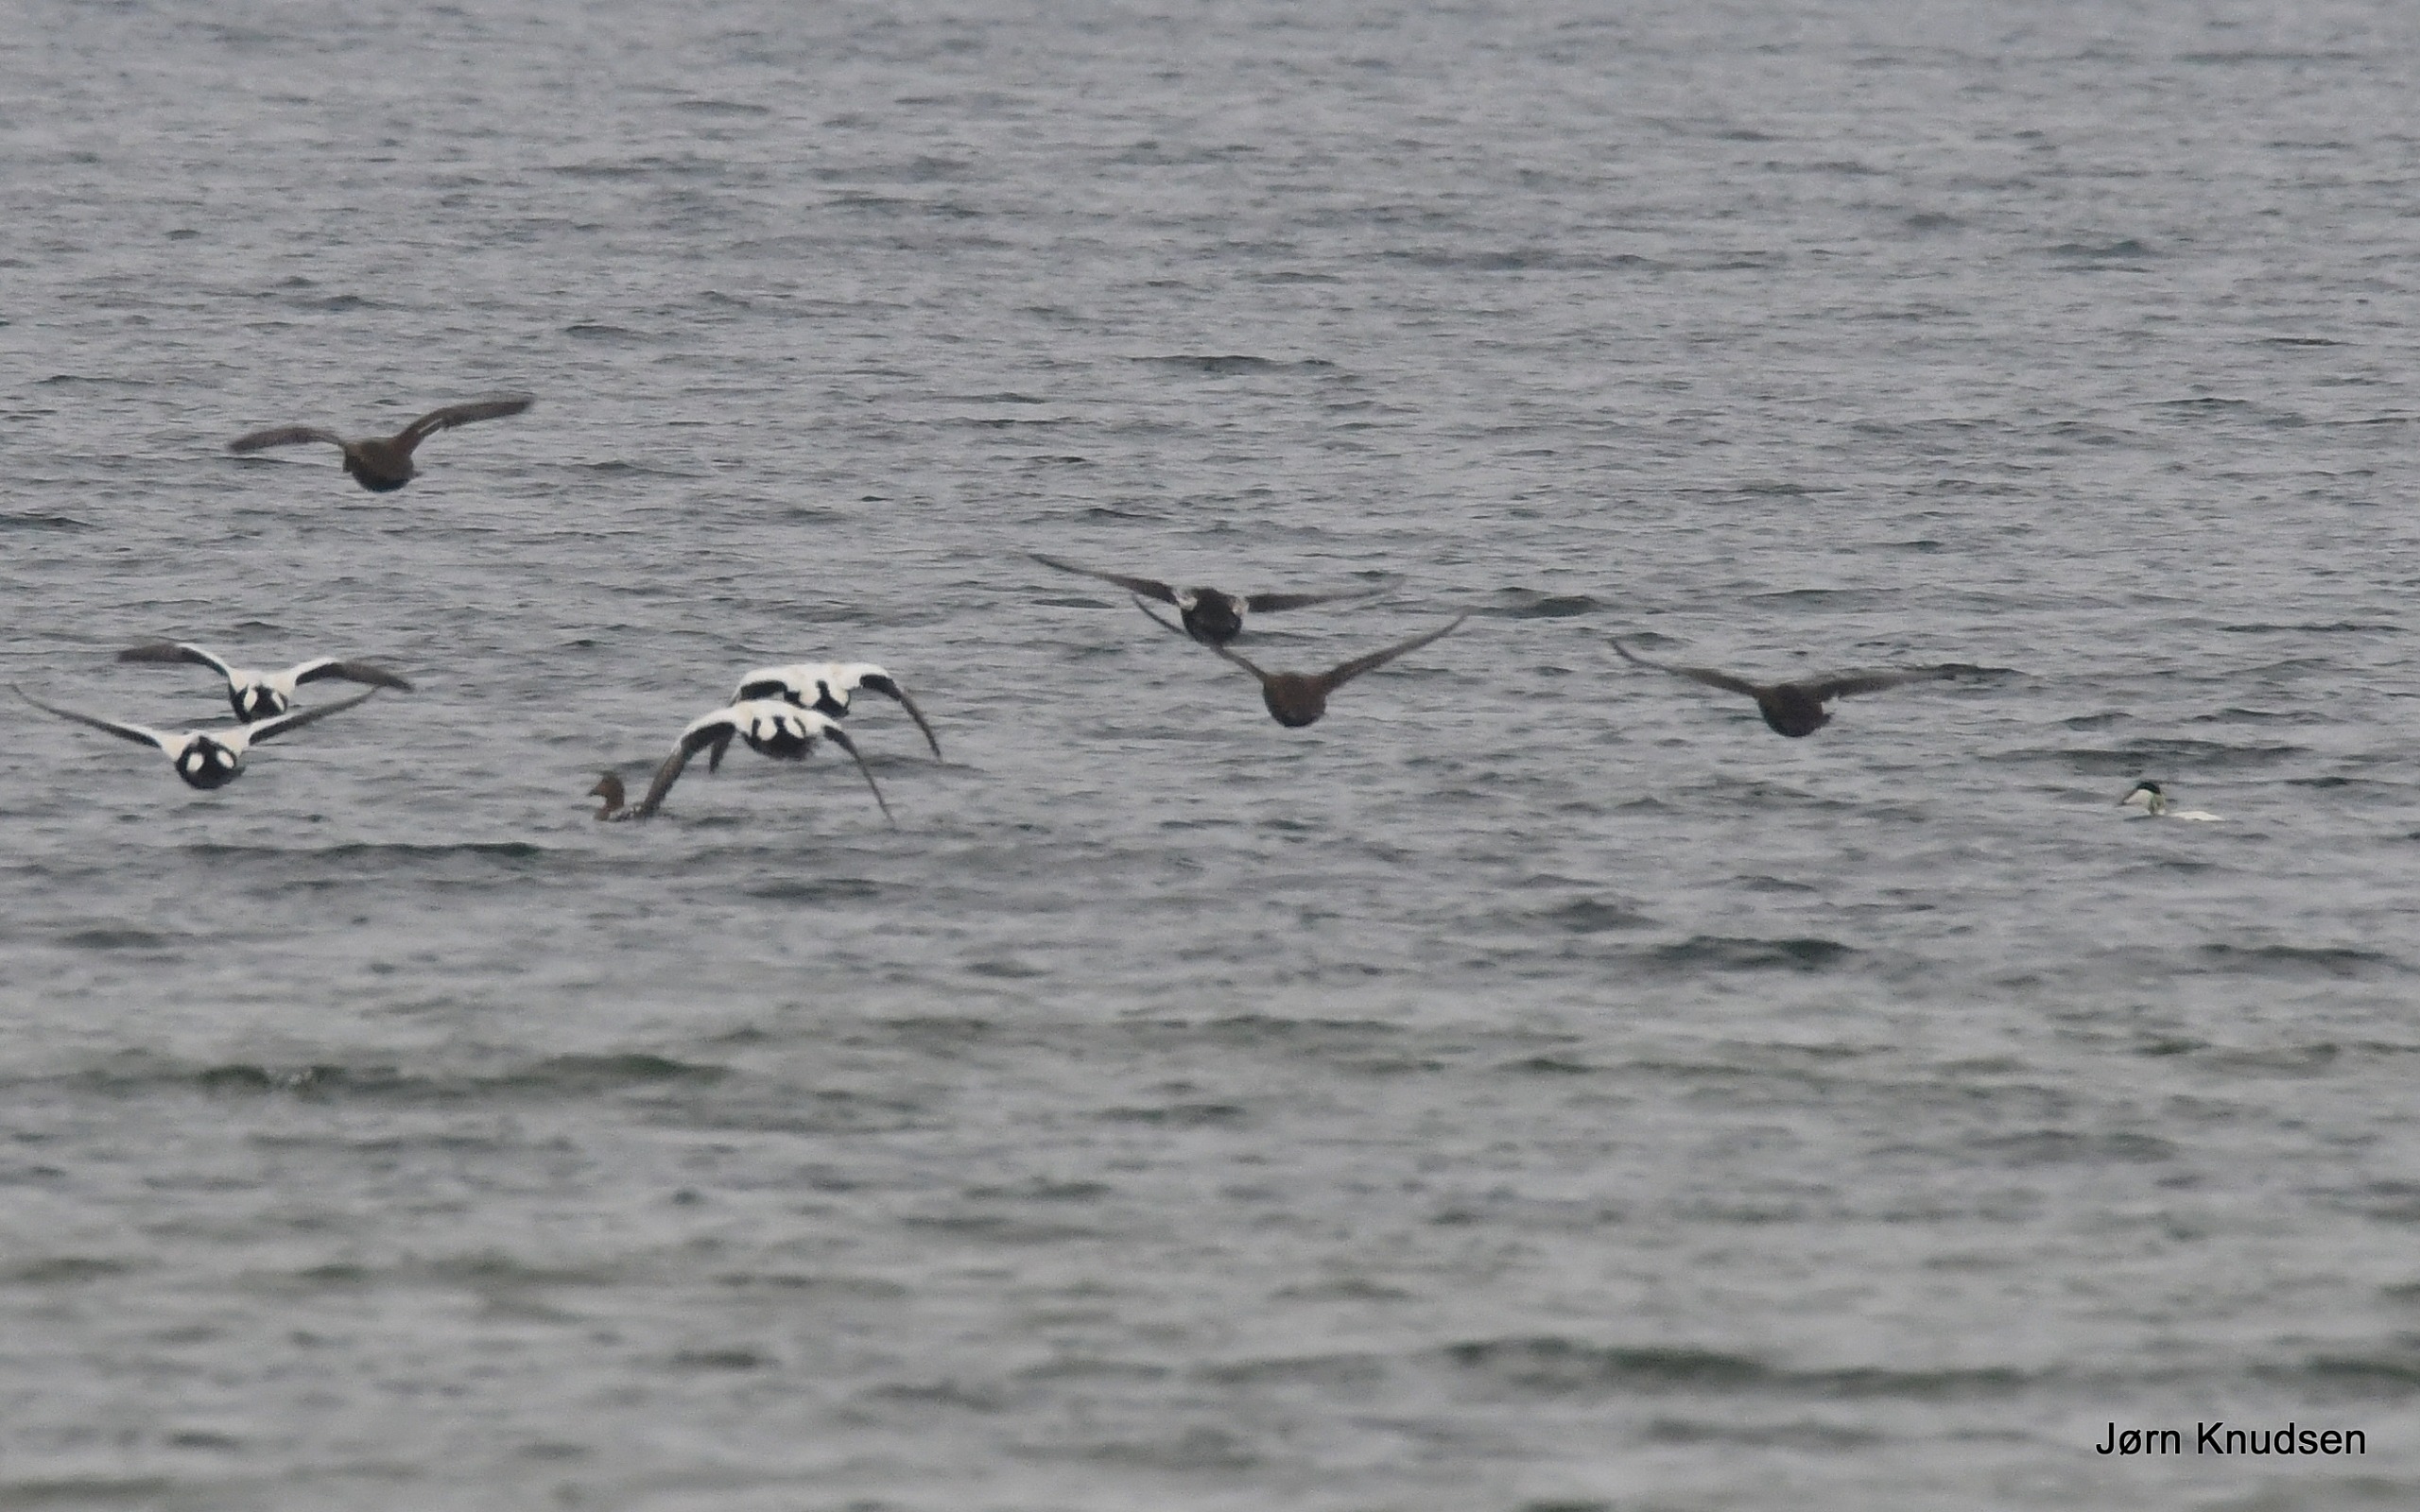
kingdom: Animalia
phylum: Chordata
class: Aves
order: Anseriformes
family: Anatidae
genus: Somateria
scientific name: Somateria mollissima
